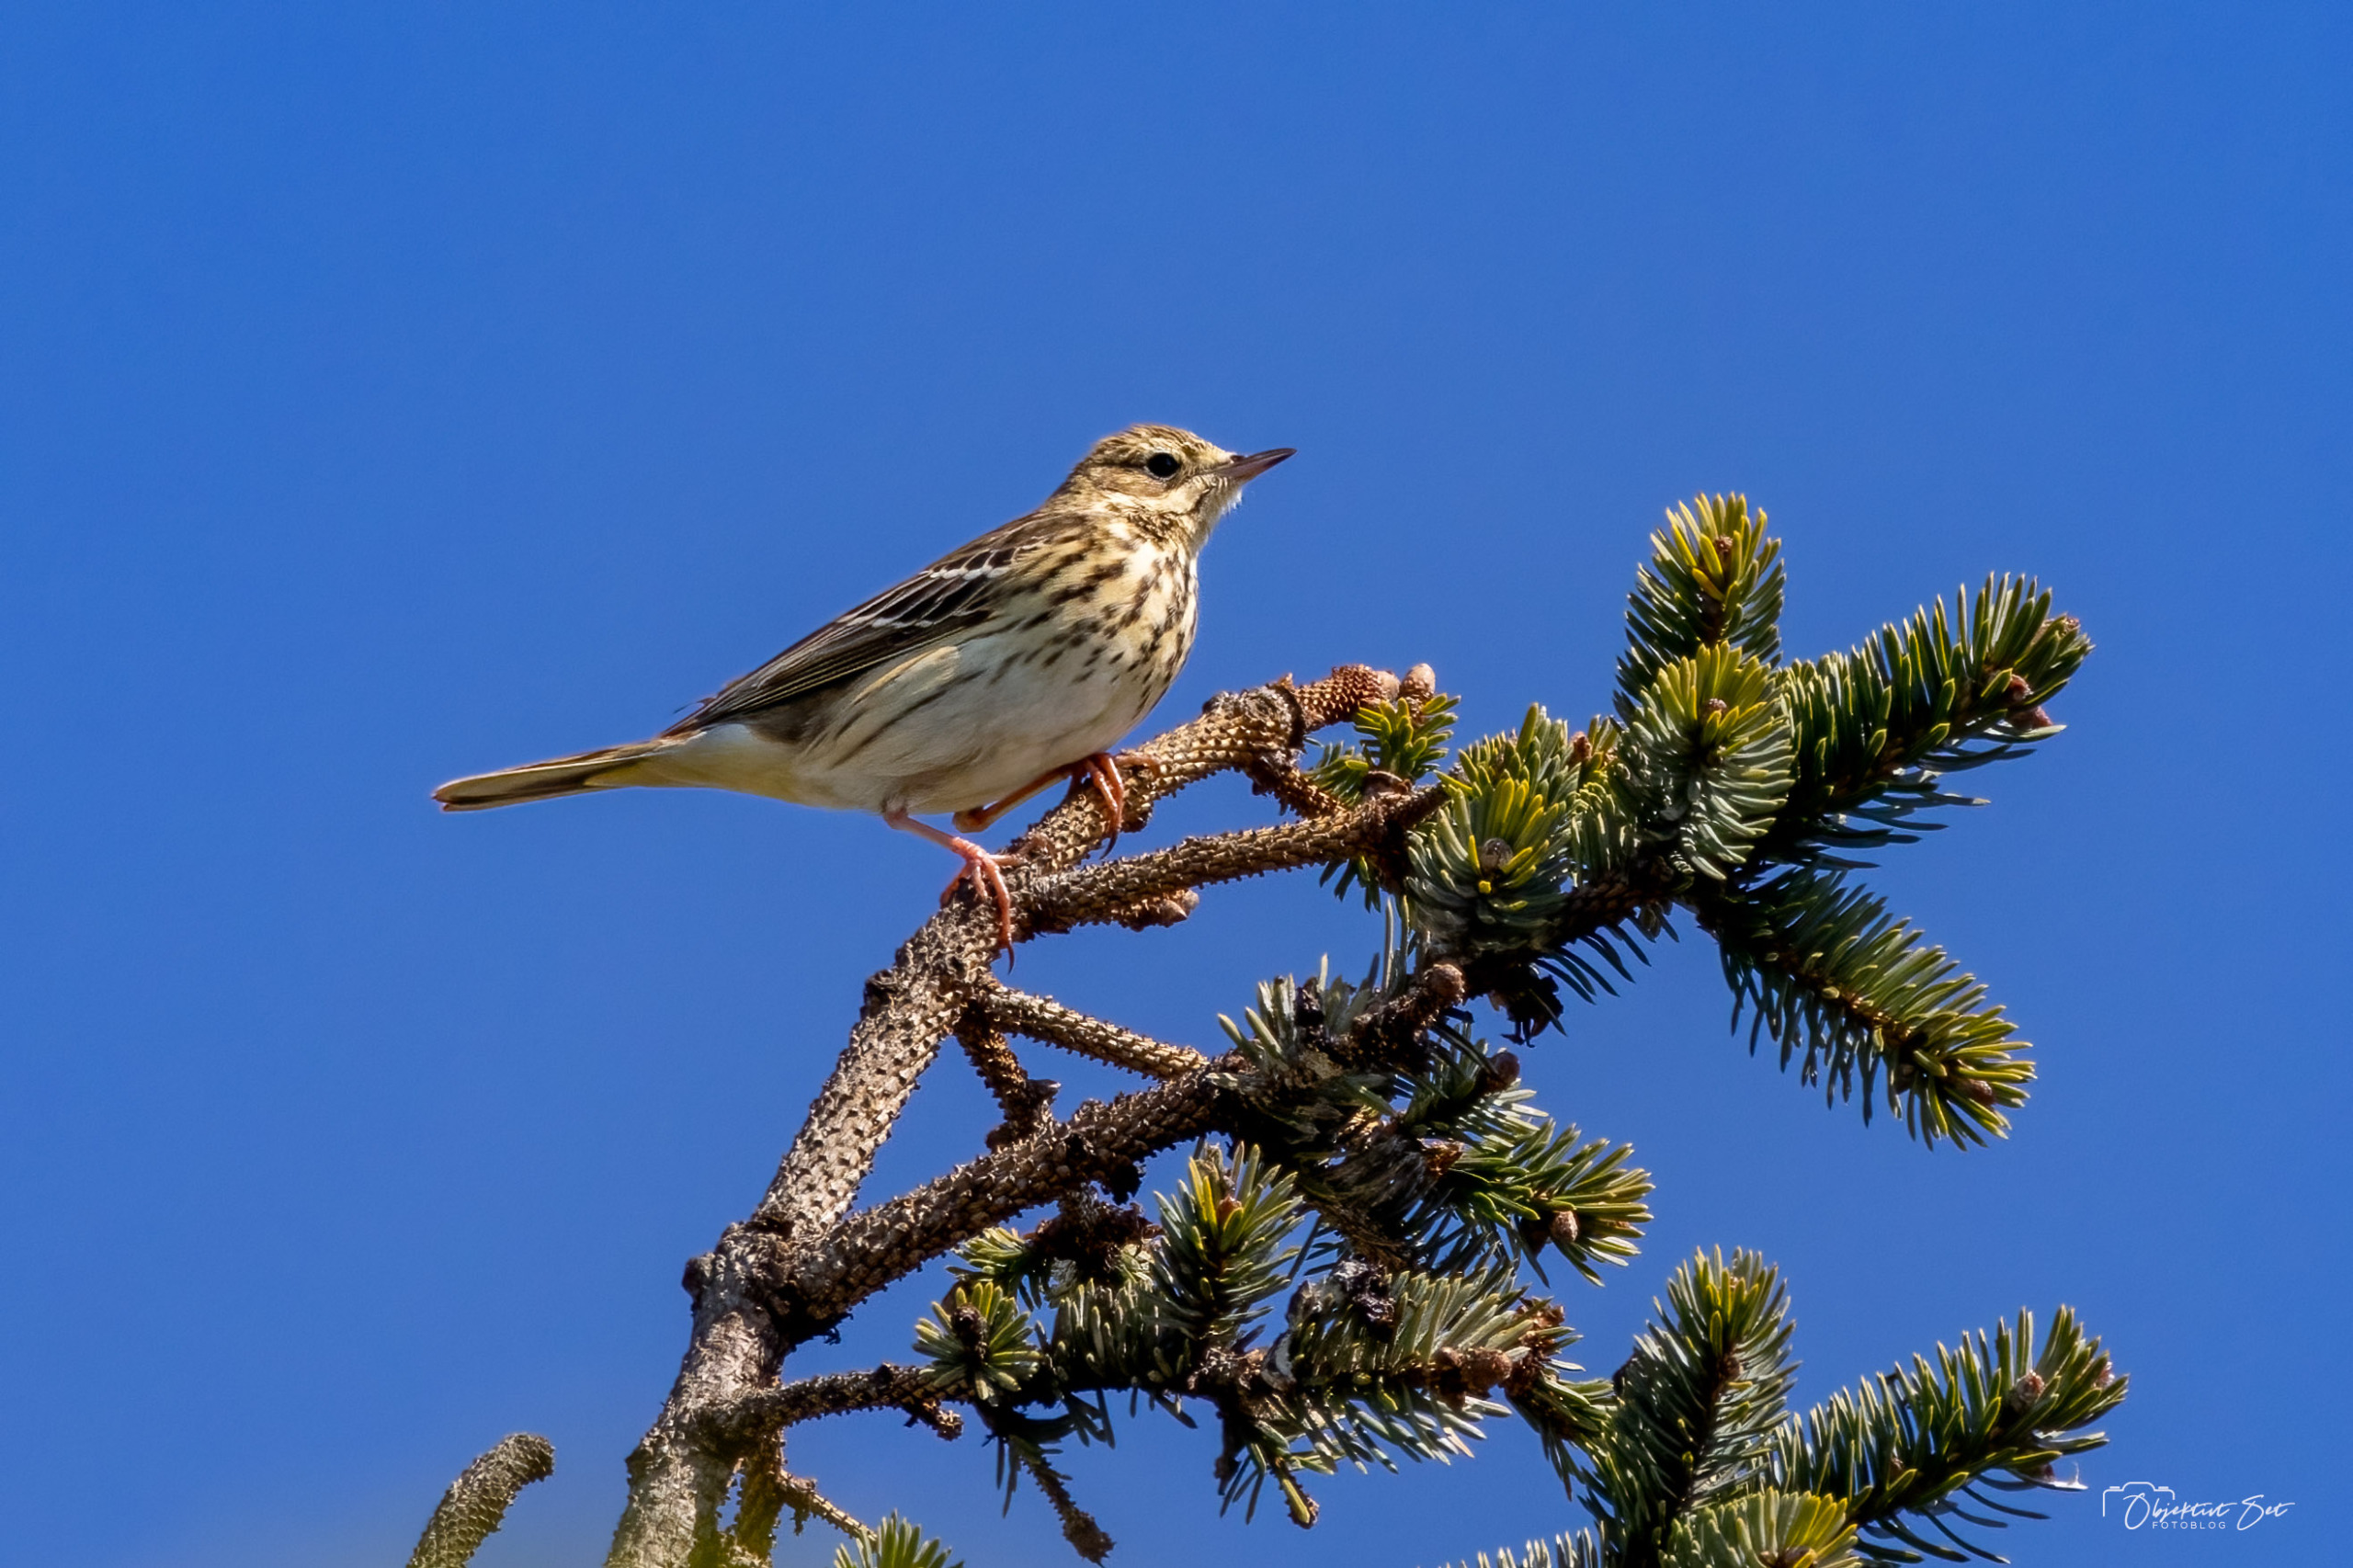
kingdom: Animalia
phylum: Chordata
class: Aves
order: Passeriformes
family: Motacillidae
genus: Anthus
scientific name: Anthus trivialis
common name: Skovpiber
